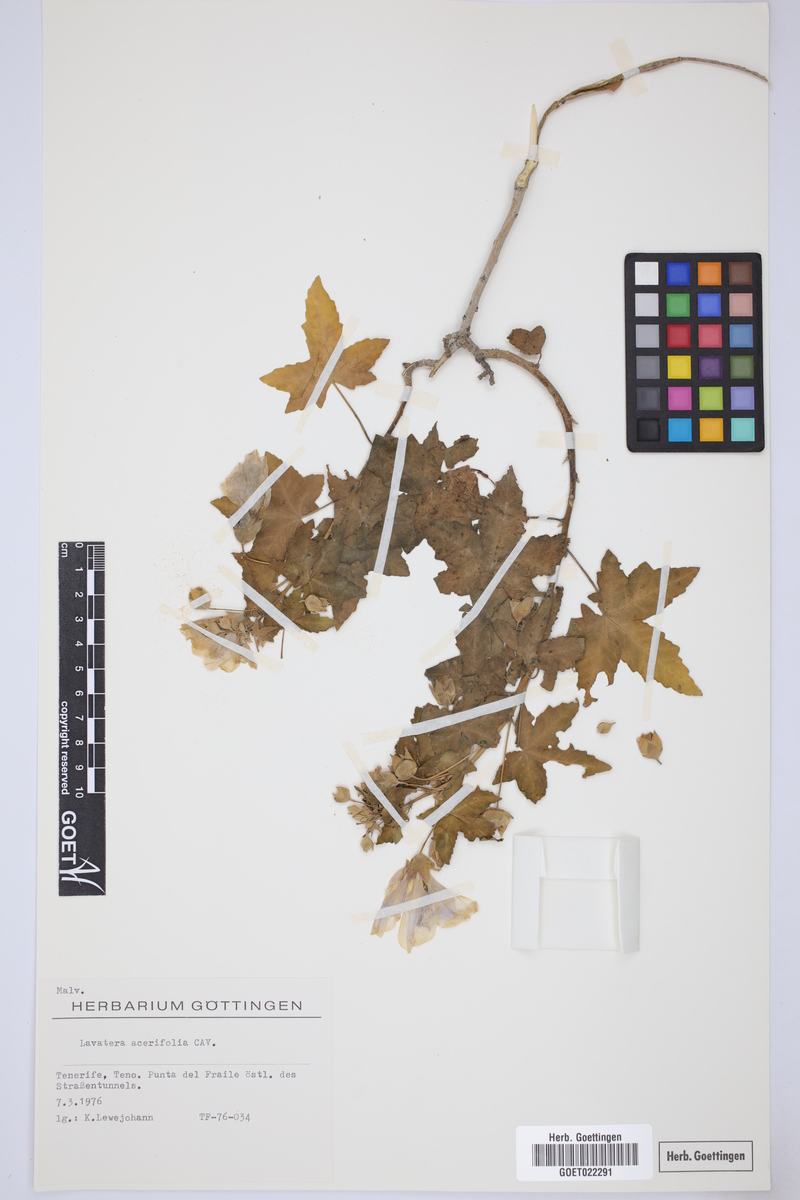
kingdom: Plantae
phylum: Tracheophyta
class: Magnoliopsida
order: Malvales
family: Malvaceae
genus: Malva
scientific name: Malva acerifolia
